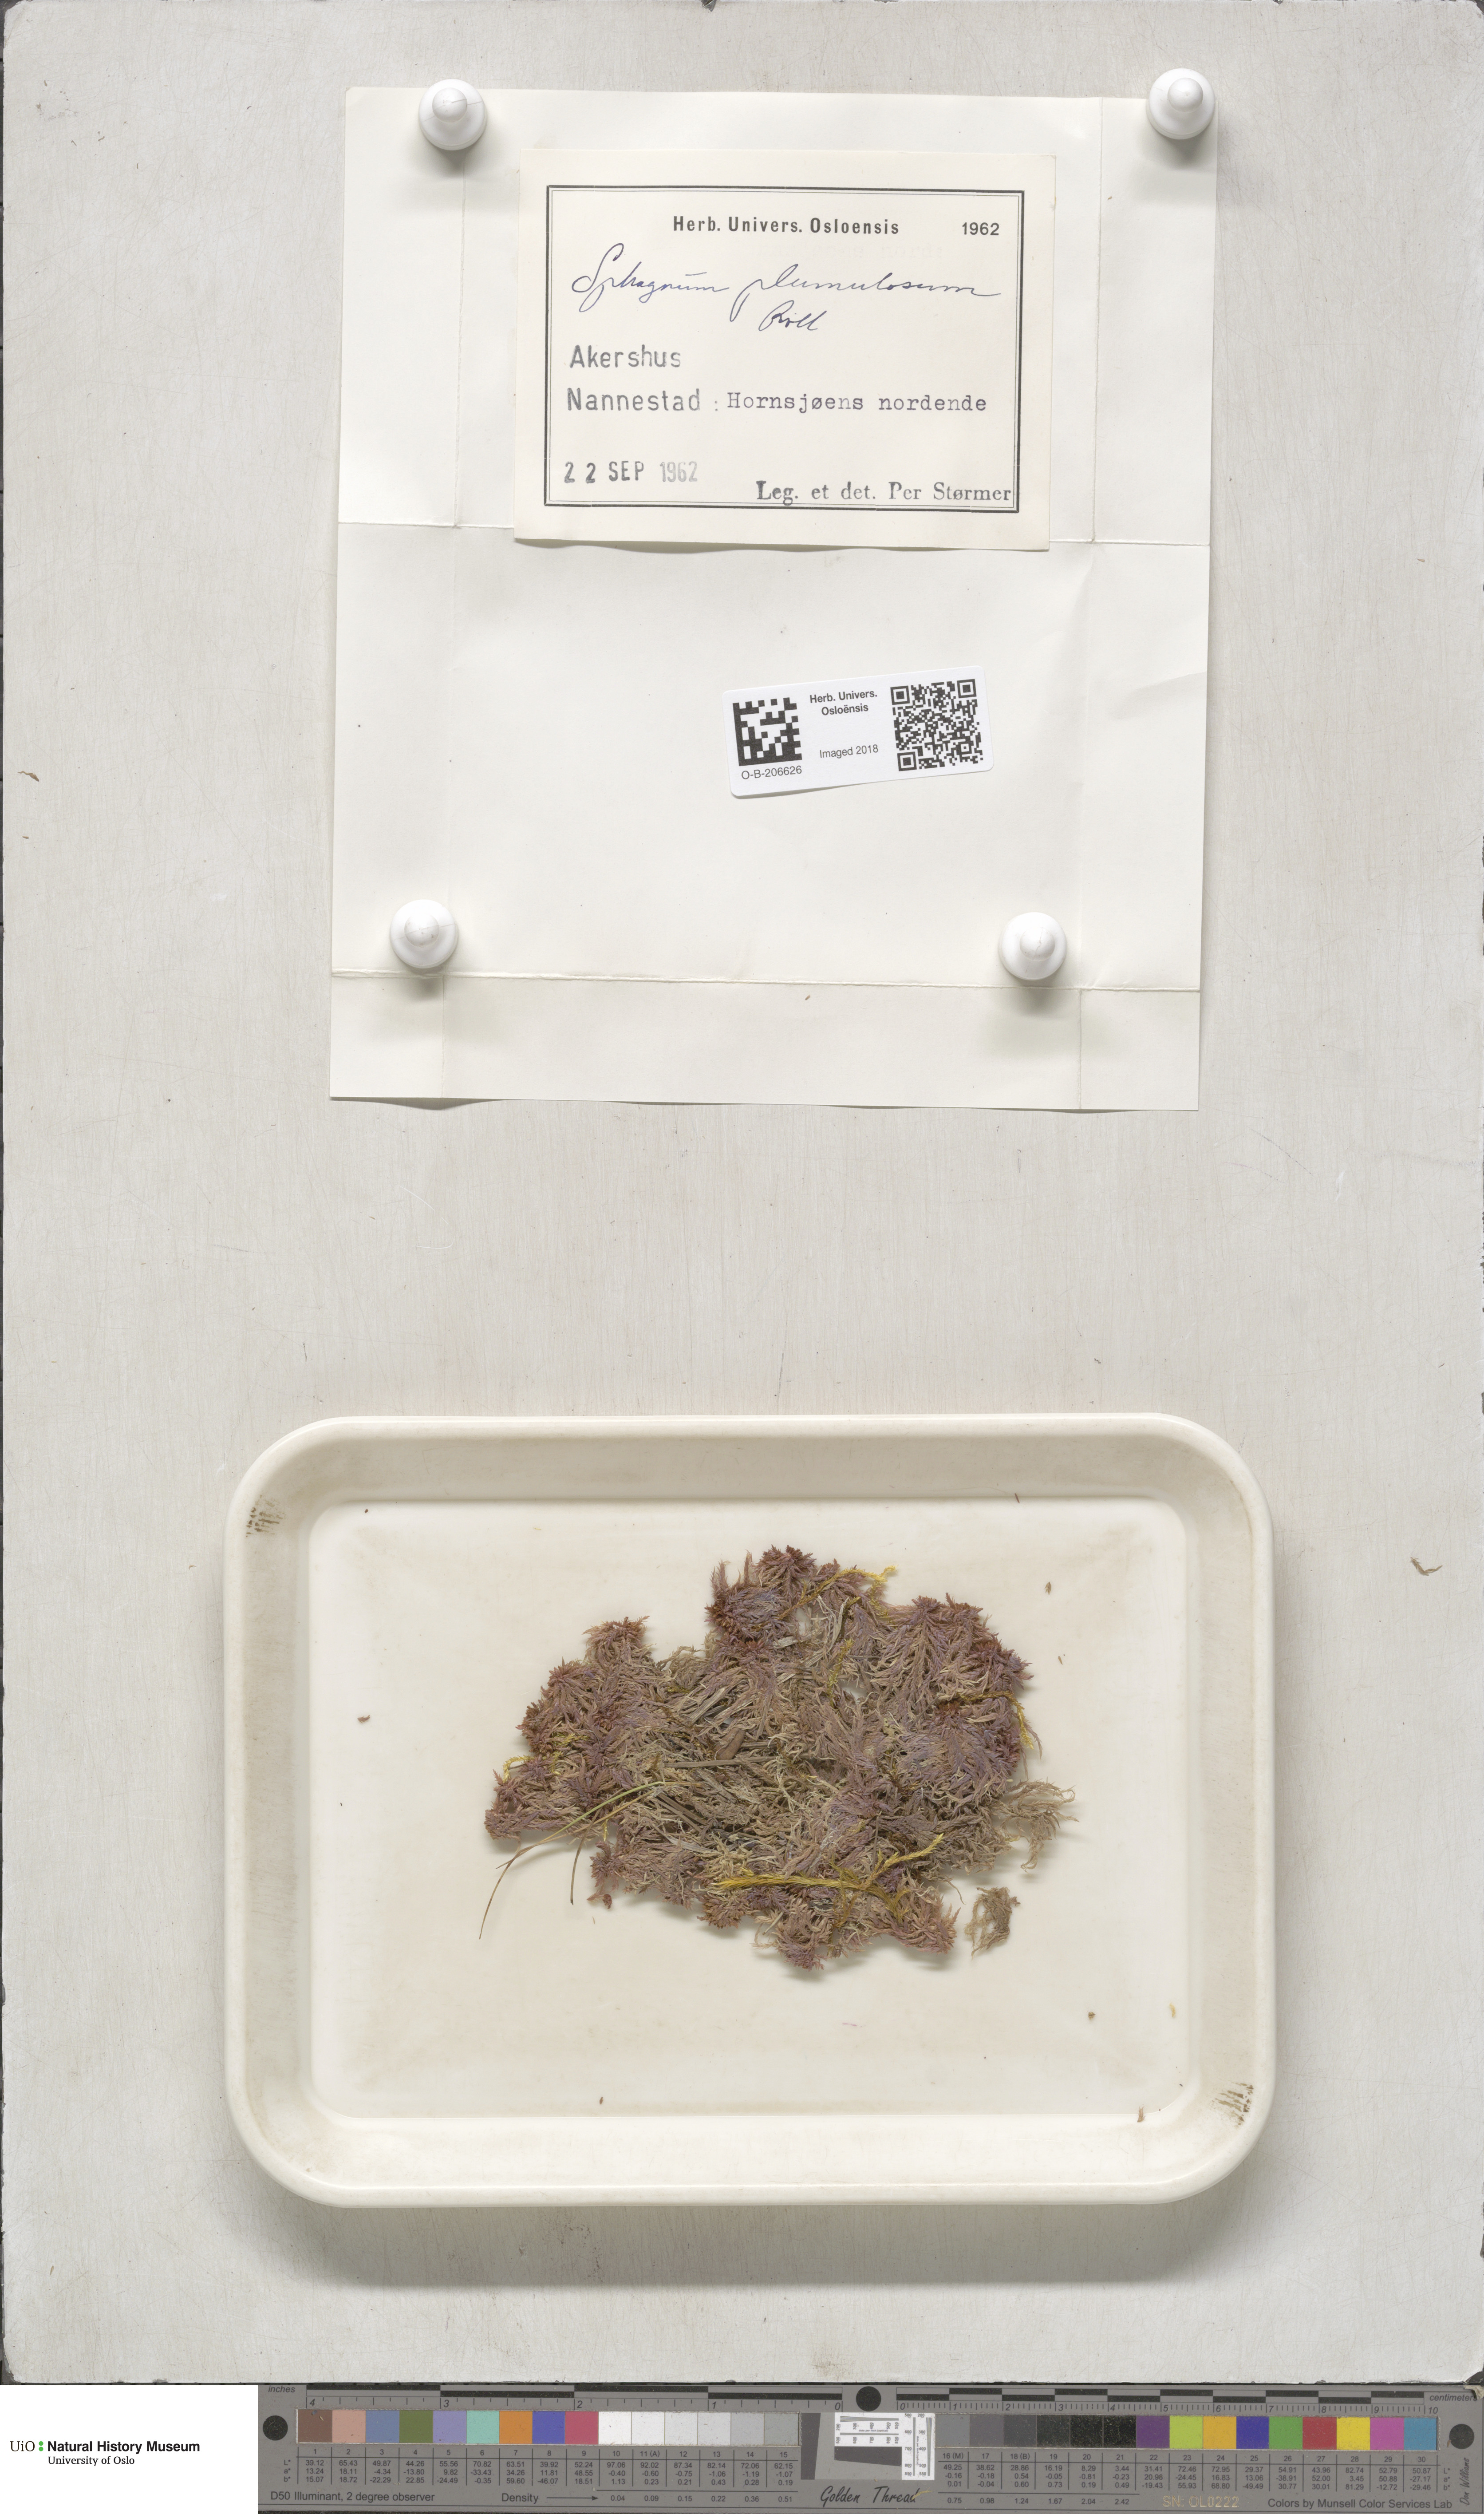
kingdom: Plantae
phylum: Bryophyta
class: Sphagnopsida
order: Sphagnales
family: Sphagnaceae
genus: Sphagnum
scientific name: Sphagnum subnitens
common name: Lustrous bog-moss
